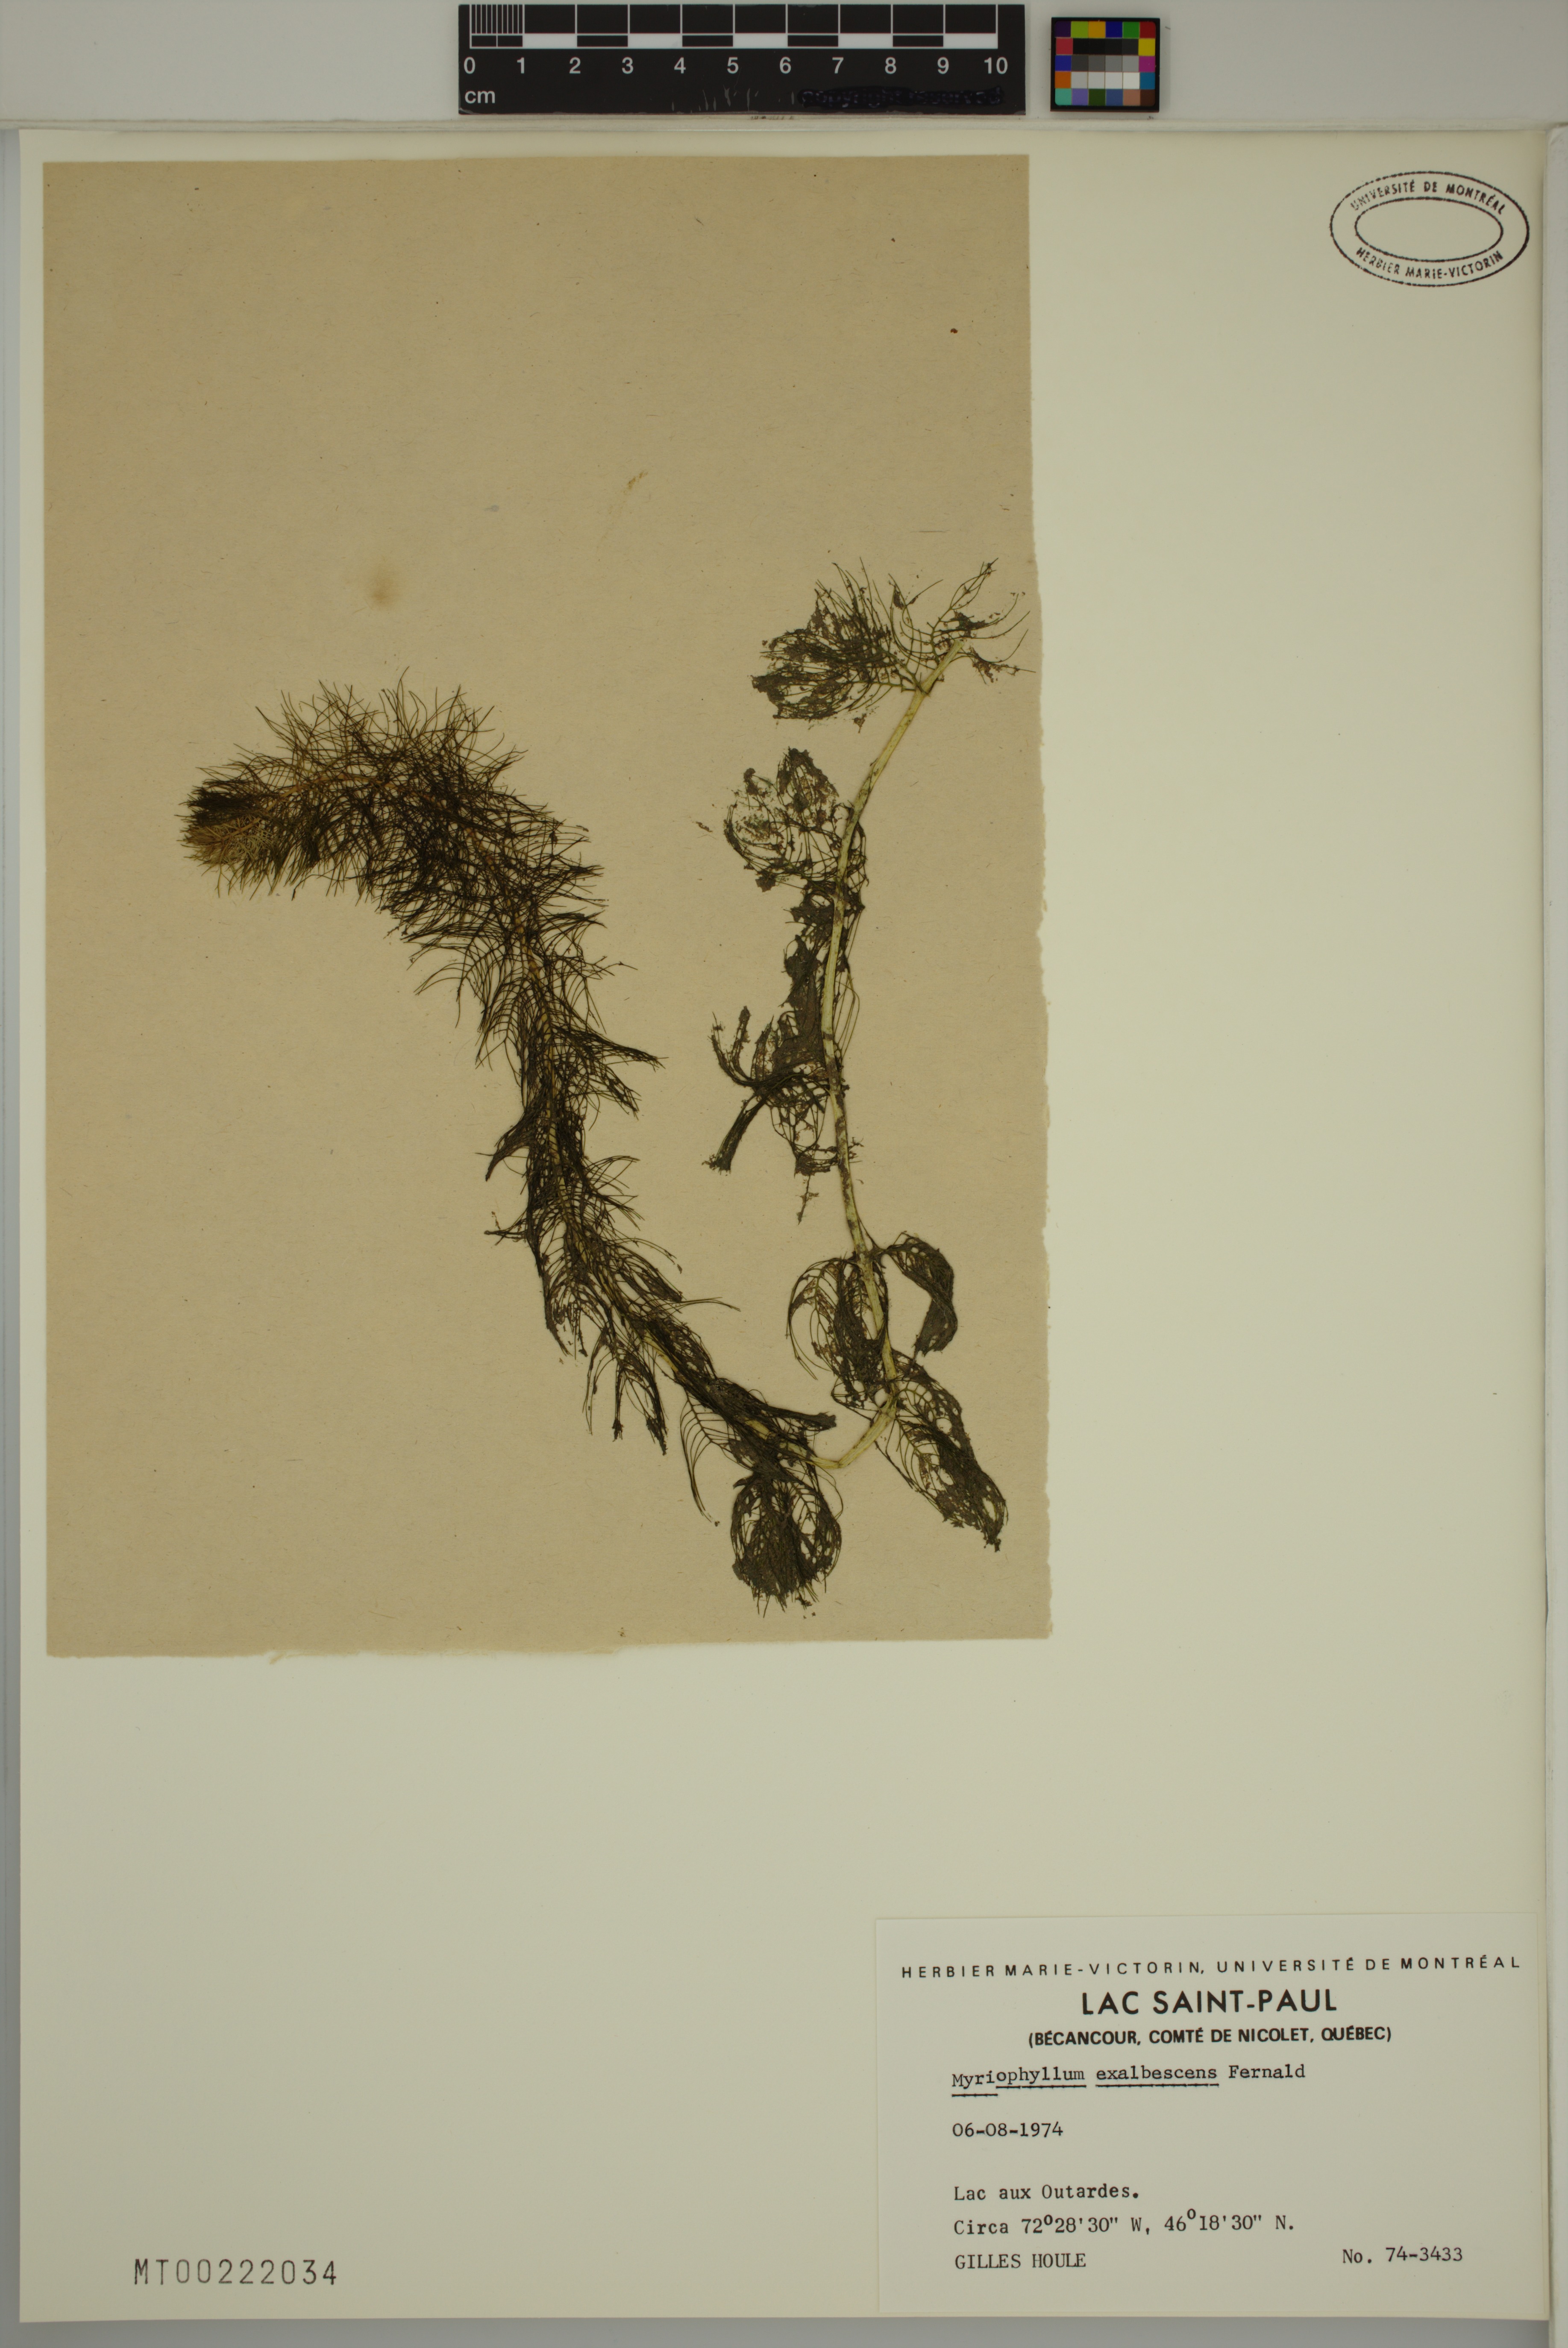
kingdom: Plantae
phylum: Tracheophyta
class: Magnoliopsida
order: Saxifragales
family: Haloragaceae
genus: Myriophyllum
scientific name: Myriophyllum sibiricum
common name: Siberian water-milfoil
